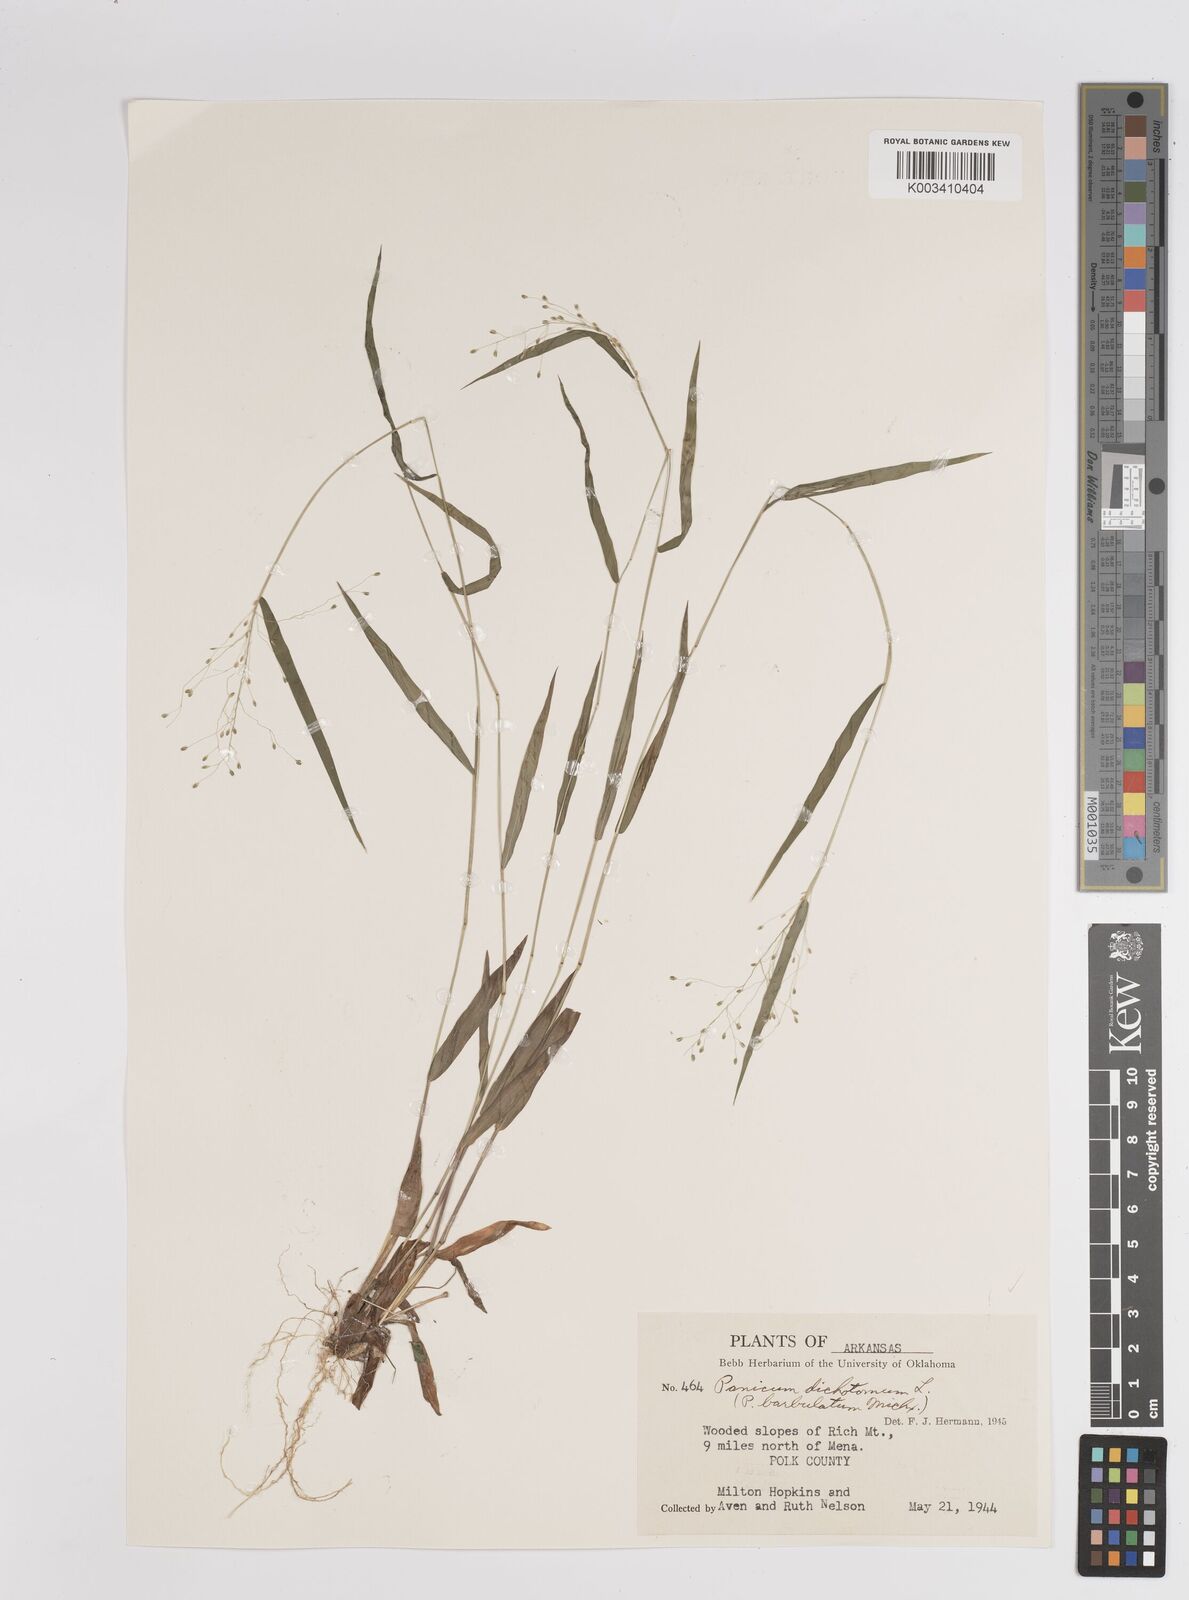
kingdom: Plantae
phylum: Tracheophyta
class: Liliopsida
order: Poales
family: Poaceae
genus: Dichanthelium
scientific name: Dichanthelium dichotomum
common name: Cypress panicgrass
